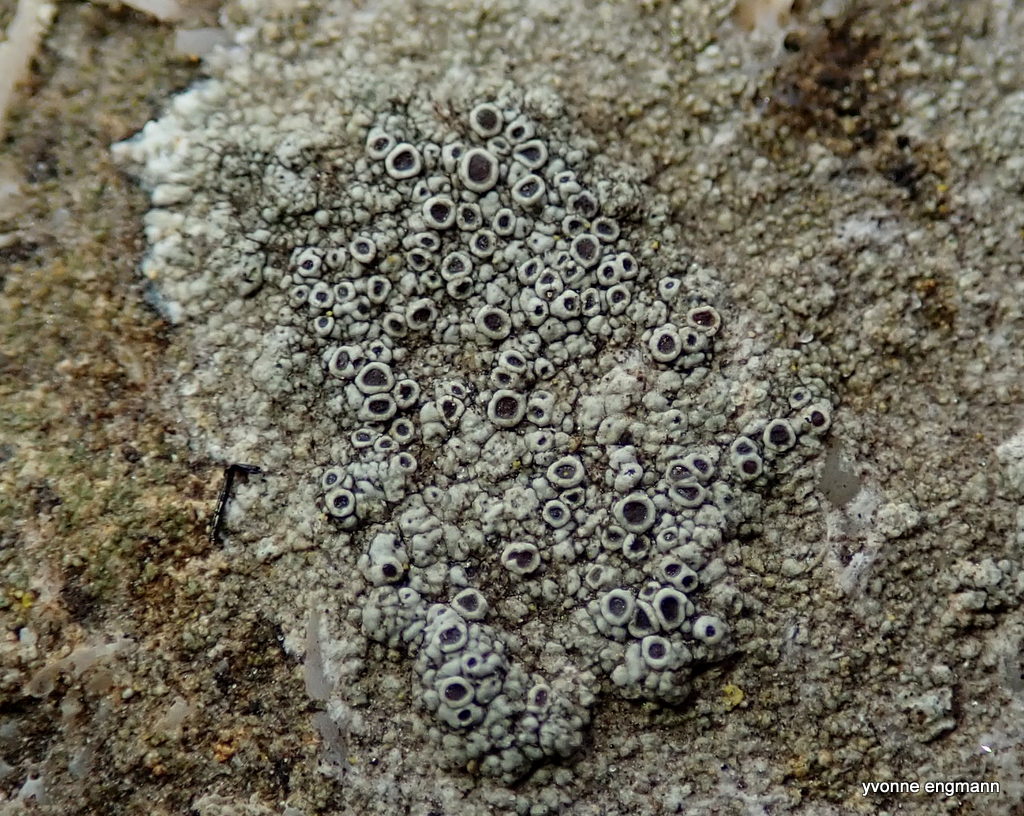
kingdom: Fungi
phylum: Ascomycota
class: Lecanoromycetes
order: Lecanorales
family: Tephromelataceae
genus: Tephromela
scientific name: Tephromela atra
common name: sortfrugtet kantskivelav
